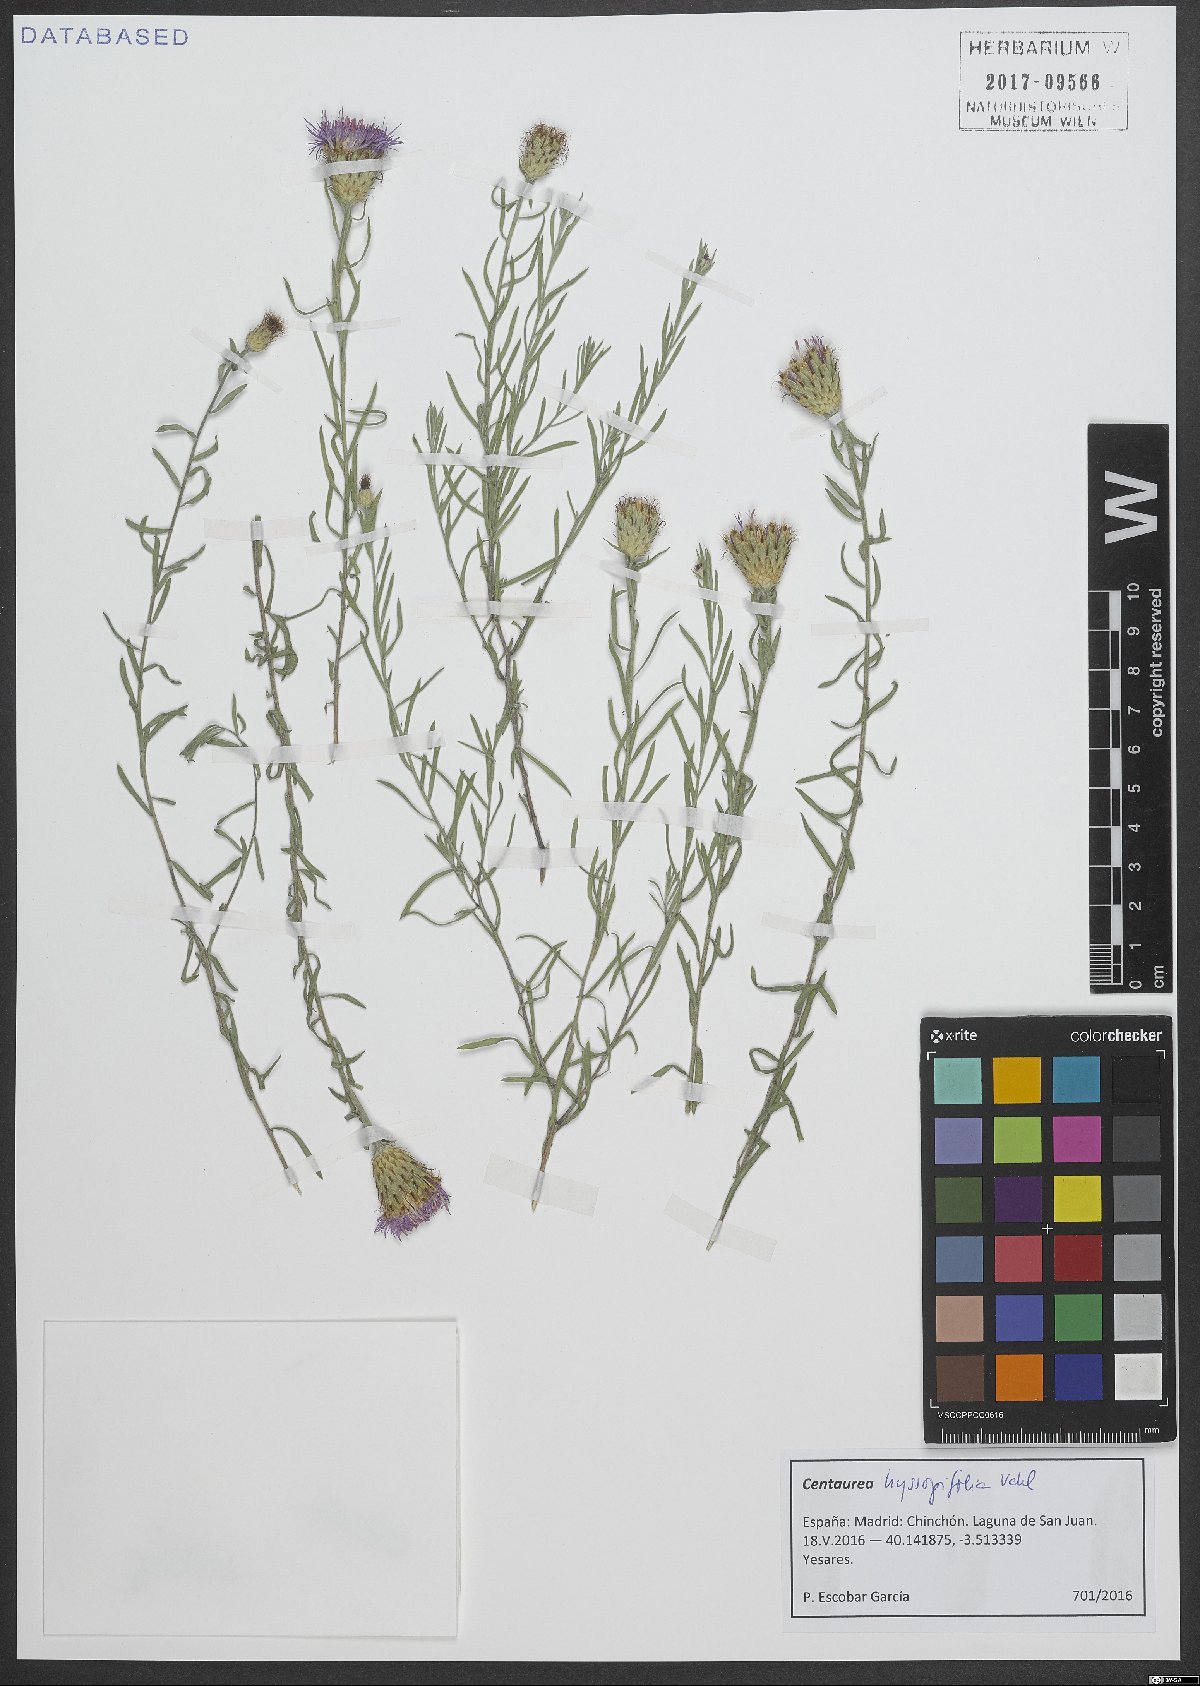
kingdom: Plantae
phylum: Tracheophyta
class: Magnoliopsida
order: Asterales
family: Asteraceae
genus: Centaurea
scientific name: Centaurea hyssopifolia
